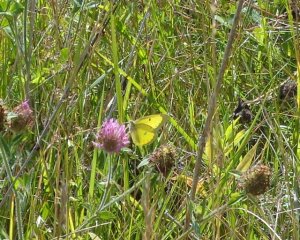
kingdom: Animalia
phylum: Arthropoda
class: Insecta
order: Lepidoptera
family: Pieridae
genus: Colias
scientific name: Colias philodice
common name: Clouded Sulphur
